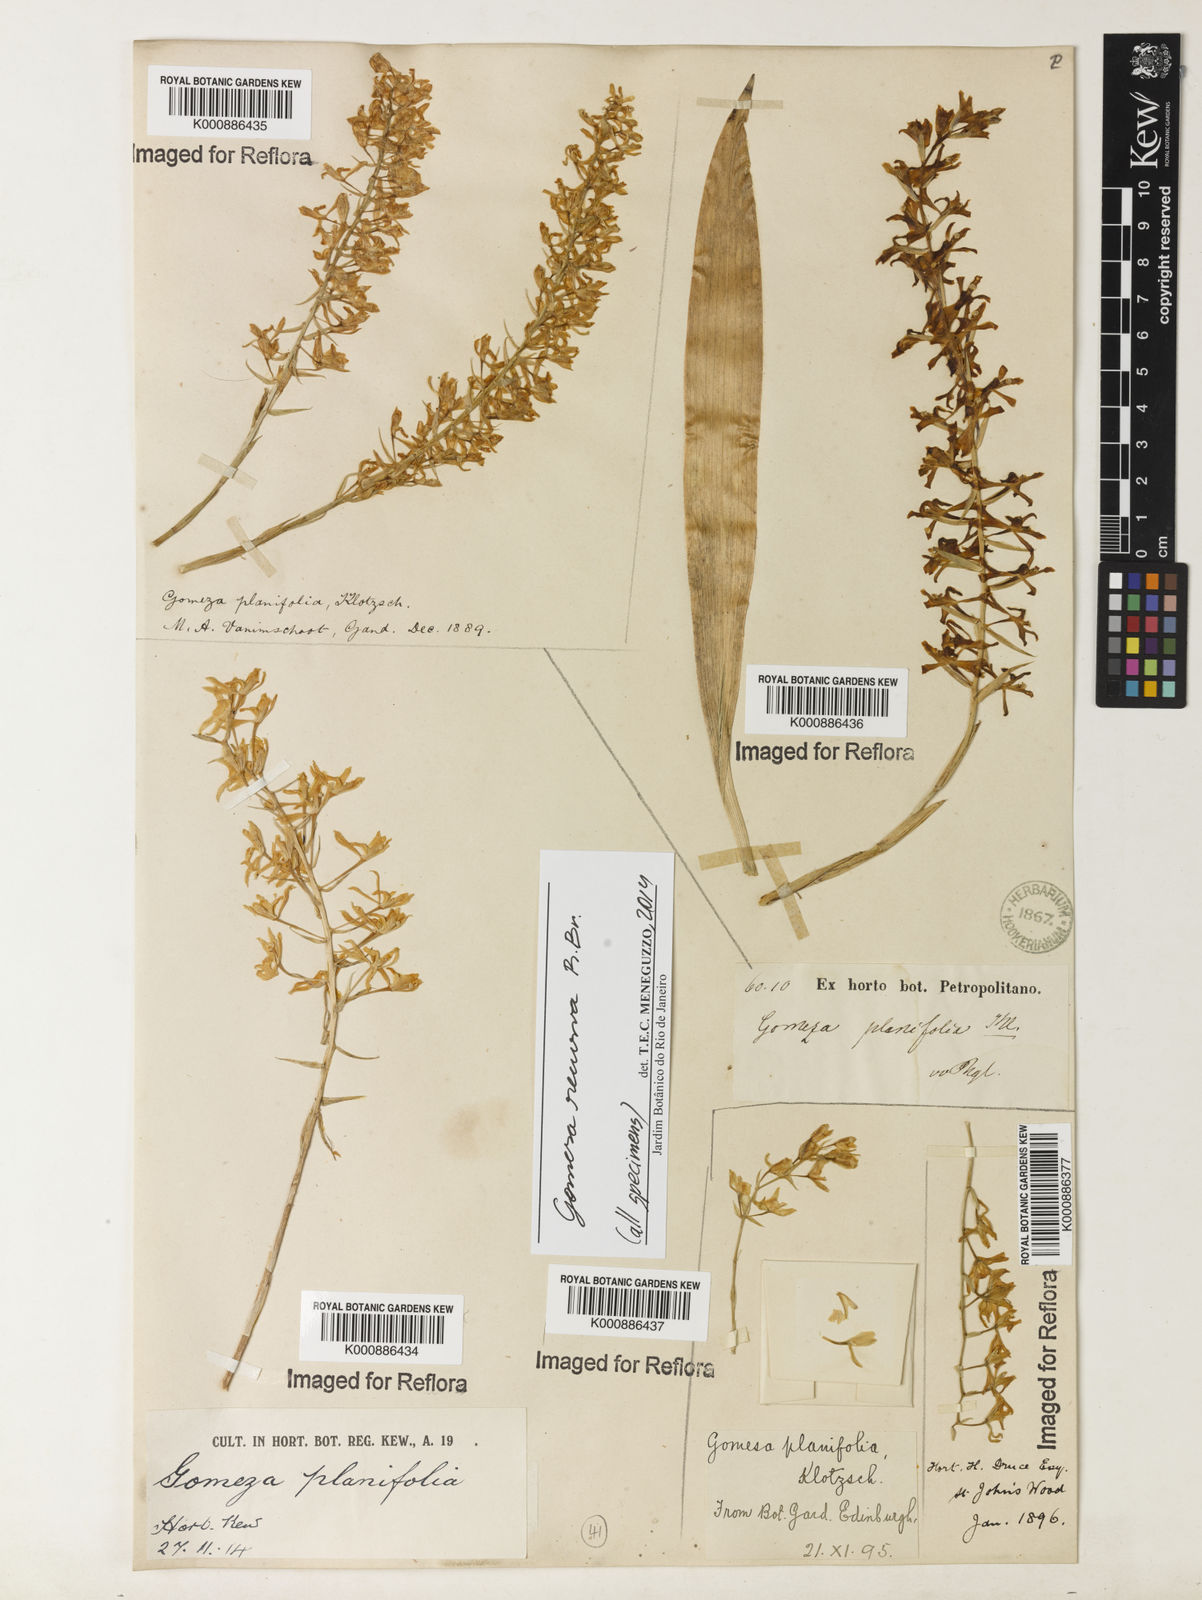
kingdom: Plantae
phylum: Tracheophyta
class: Liliopsida
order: Asparagales
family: Orchidaceae
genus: Gomesa
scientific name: Gomesa recurva
